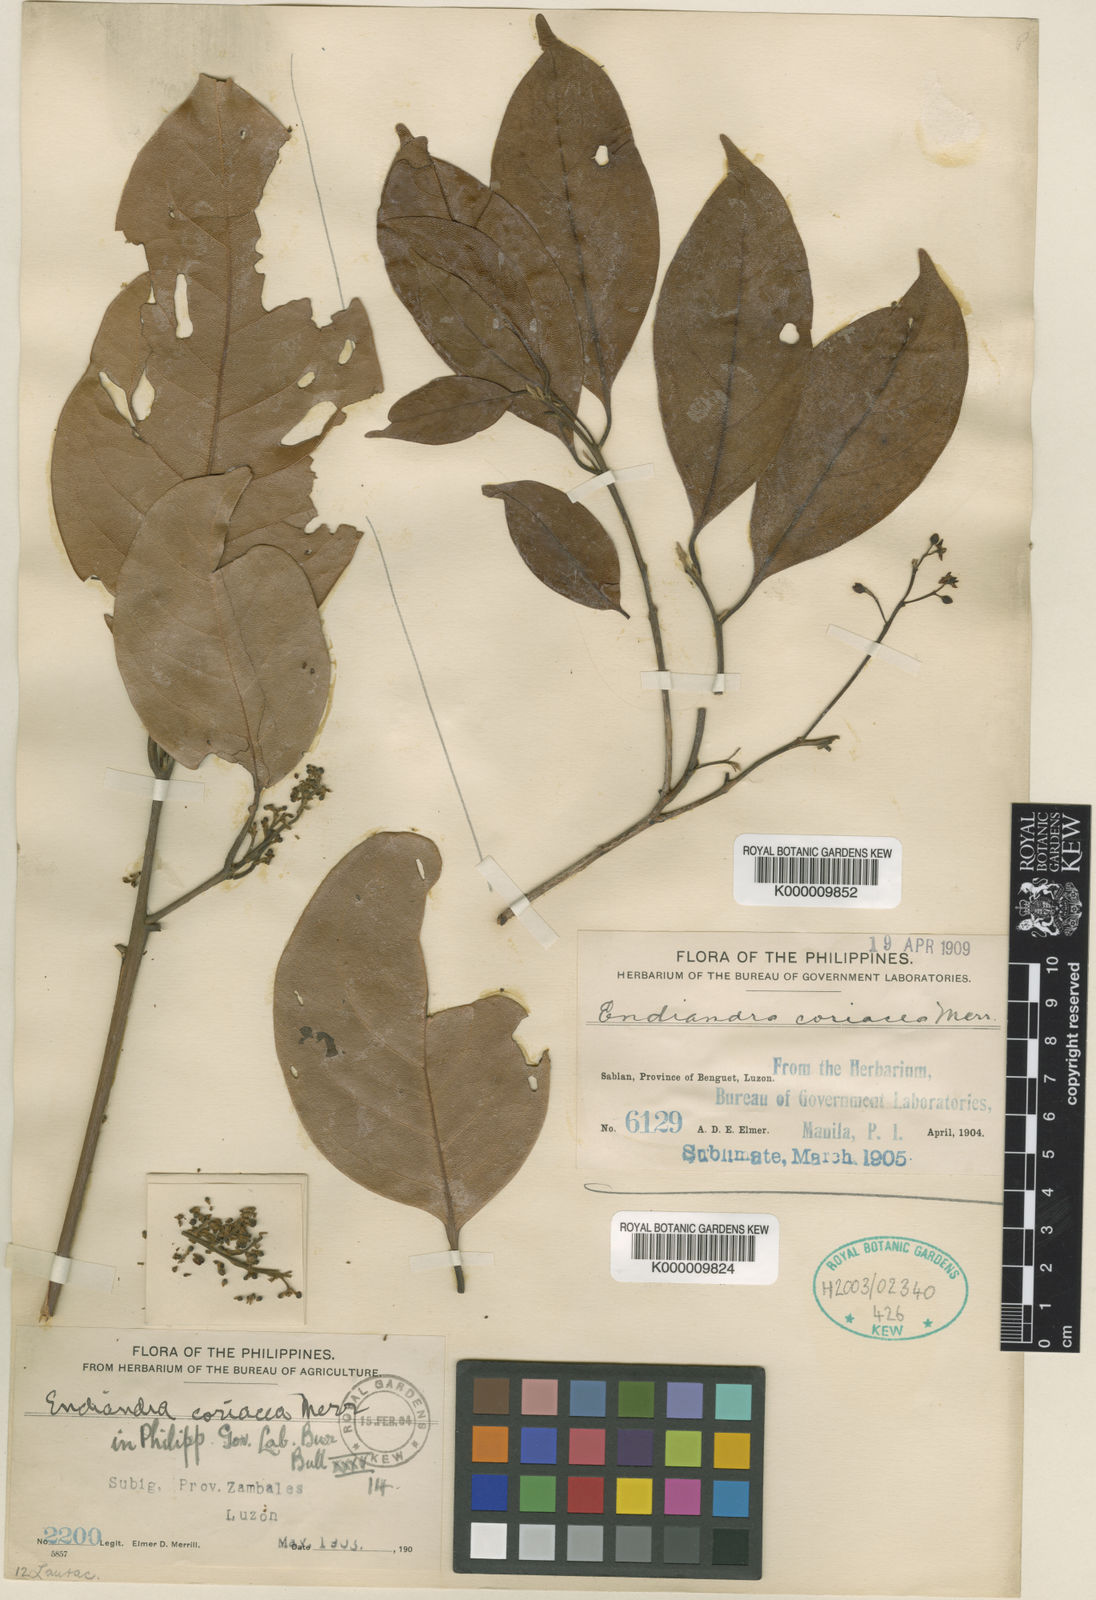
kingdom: Plantae
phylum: Tracheophyta
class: Magnoliopsida
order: Laurales
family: Lauraceae
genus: Endiandra
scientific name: Endiandra coriacea
